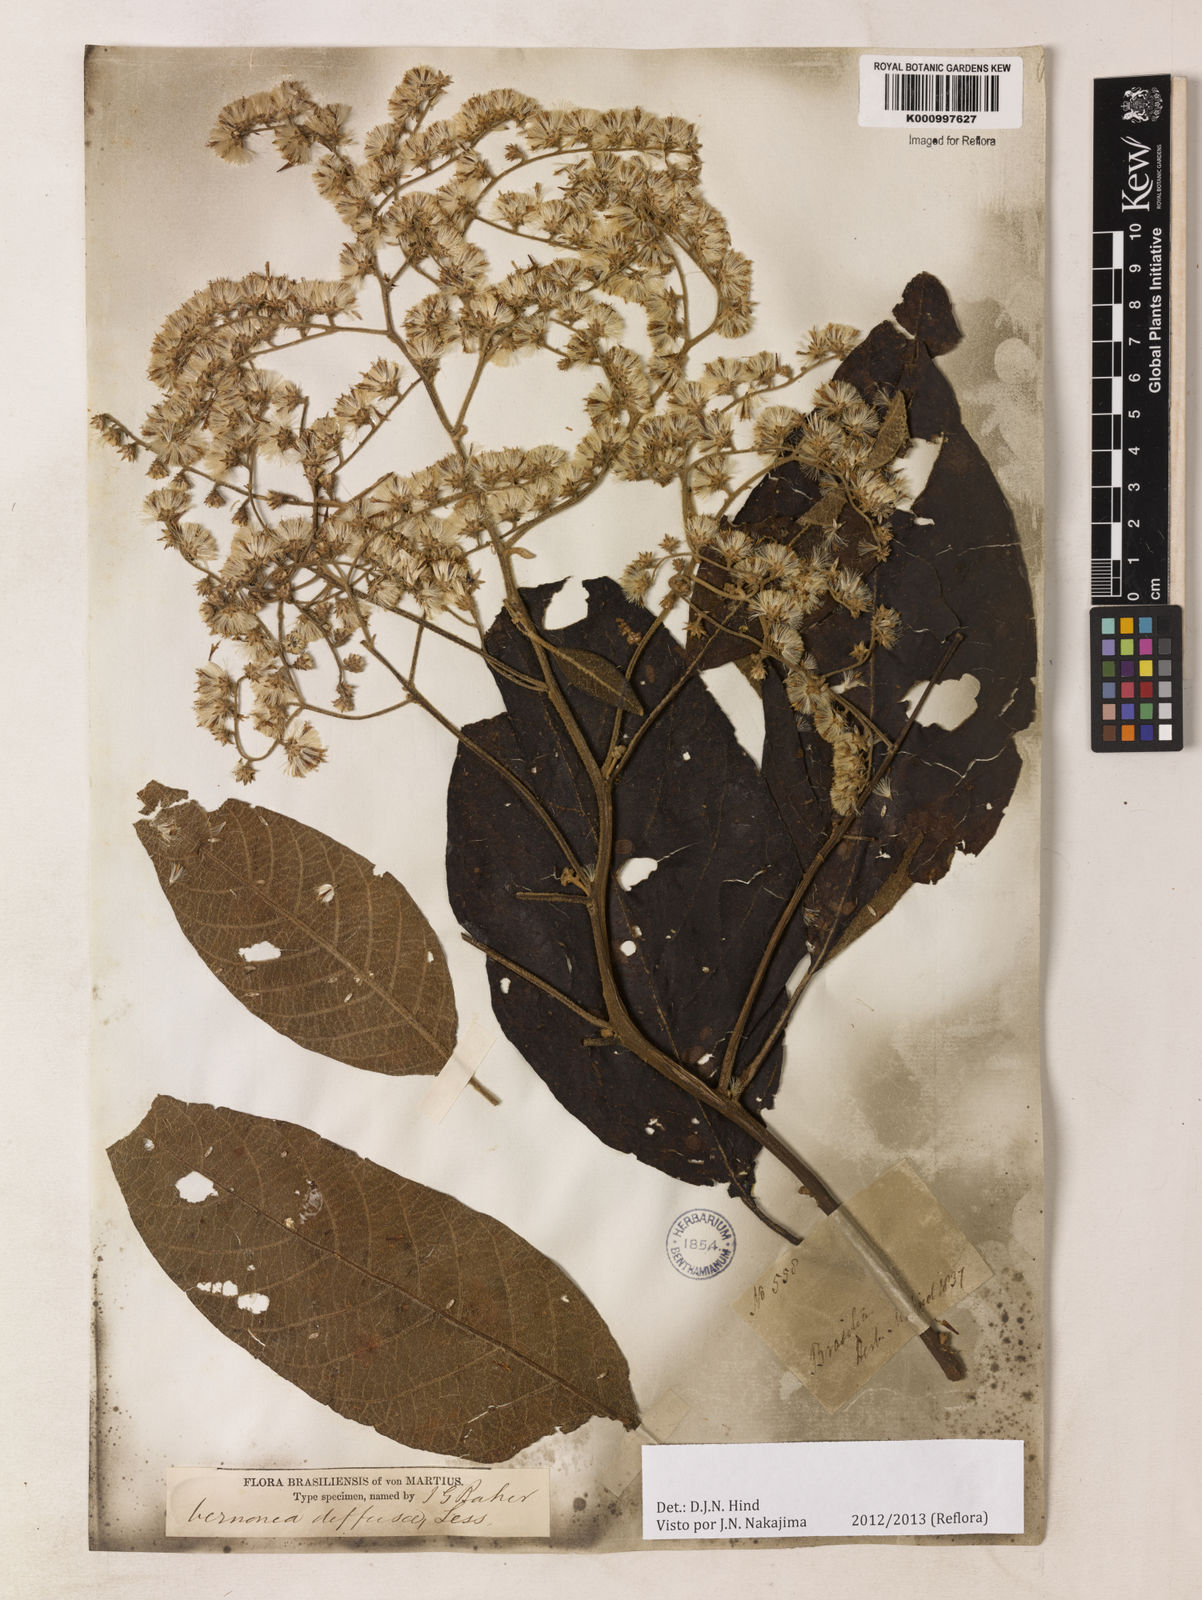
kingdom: Plantae
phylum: Tracheophyta
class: Magnoliopsida
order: Asterales
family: Asteraceae
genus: Vernonanthura
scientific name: Vernonanthura divaricata
